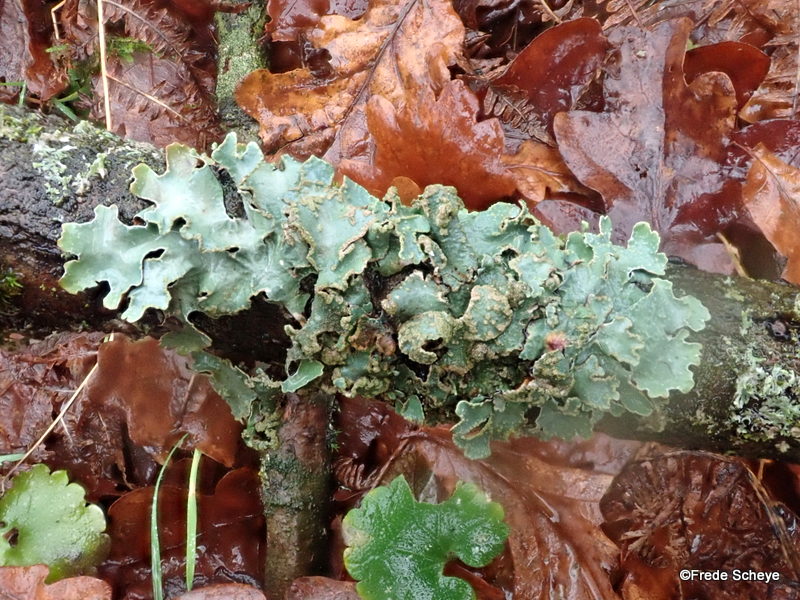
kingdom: Fungi
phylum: Ascomycota
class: Lecanoromycetes
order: Lecanorales
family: Parmeliaceae
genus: Parmelia
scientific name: Parmelia sulcata
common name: rynket skållav
